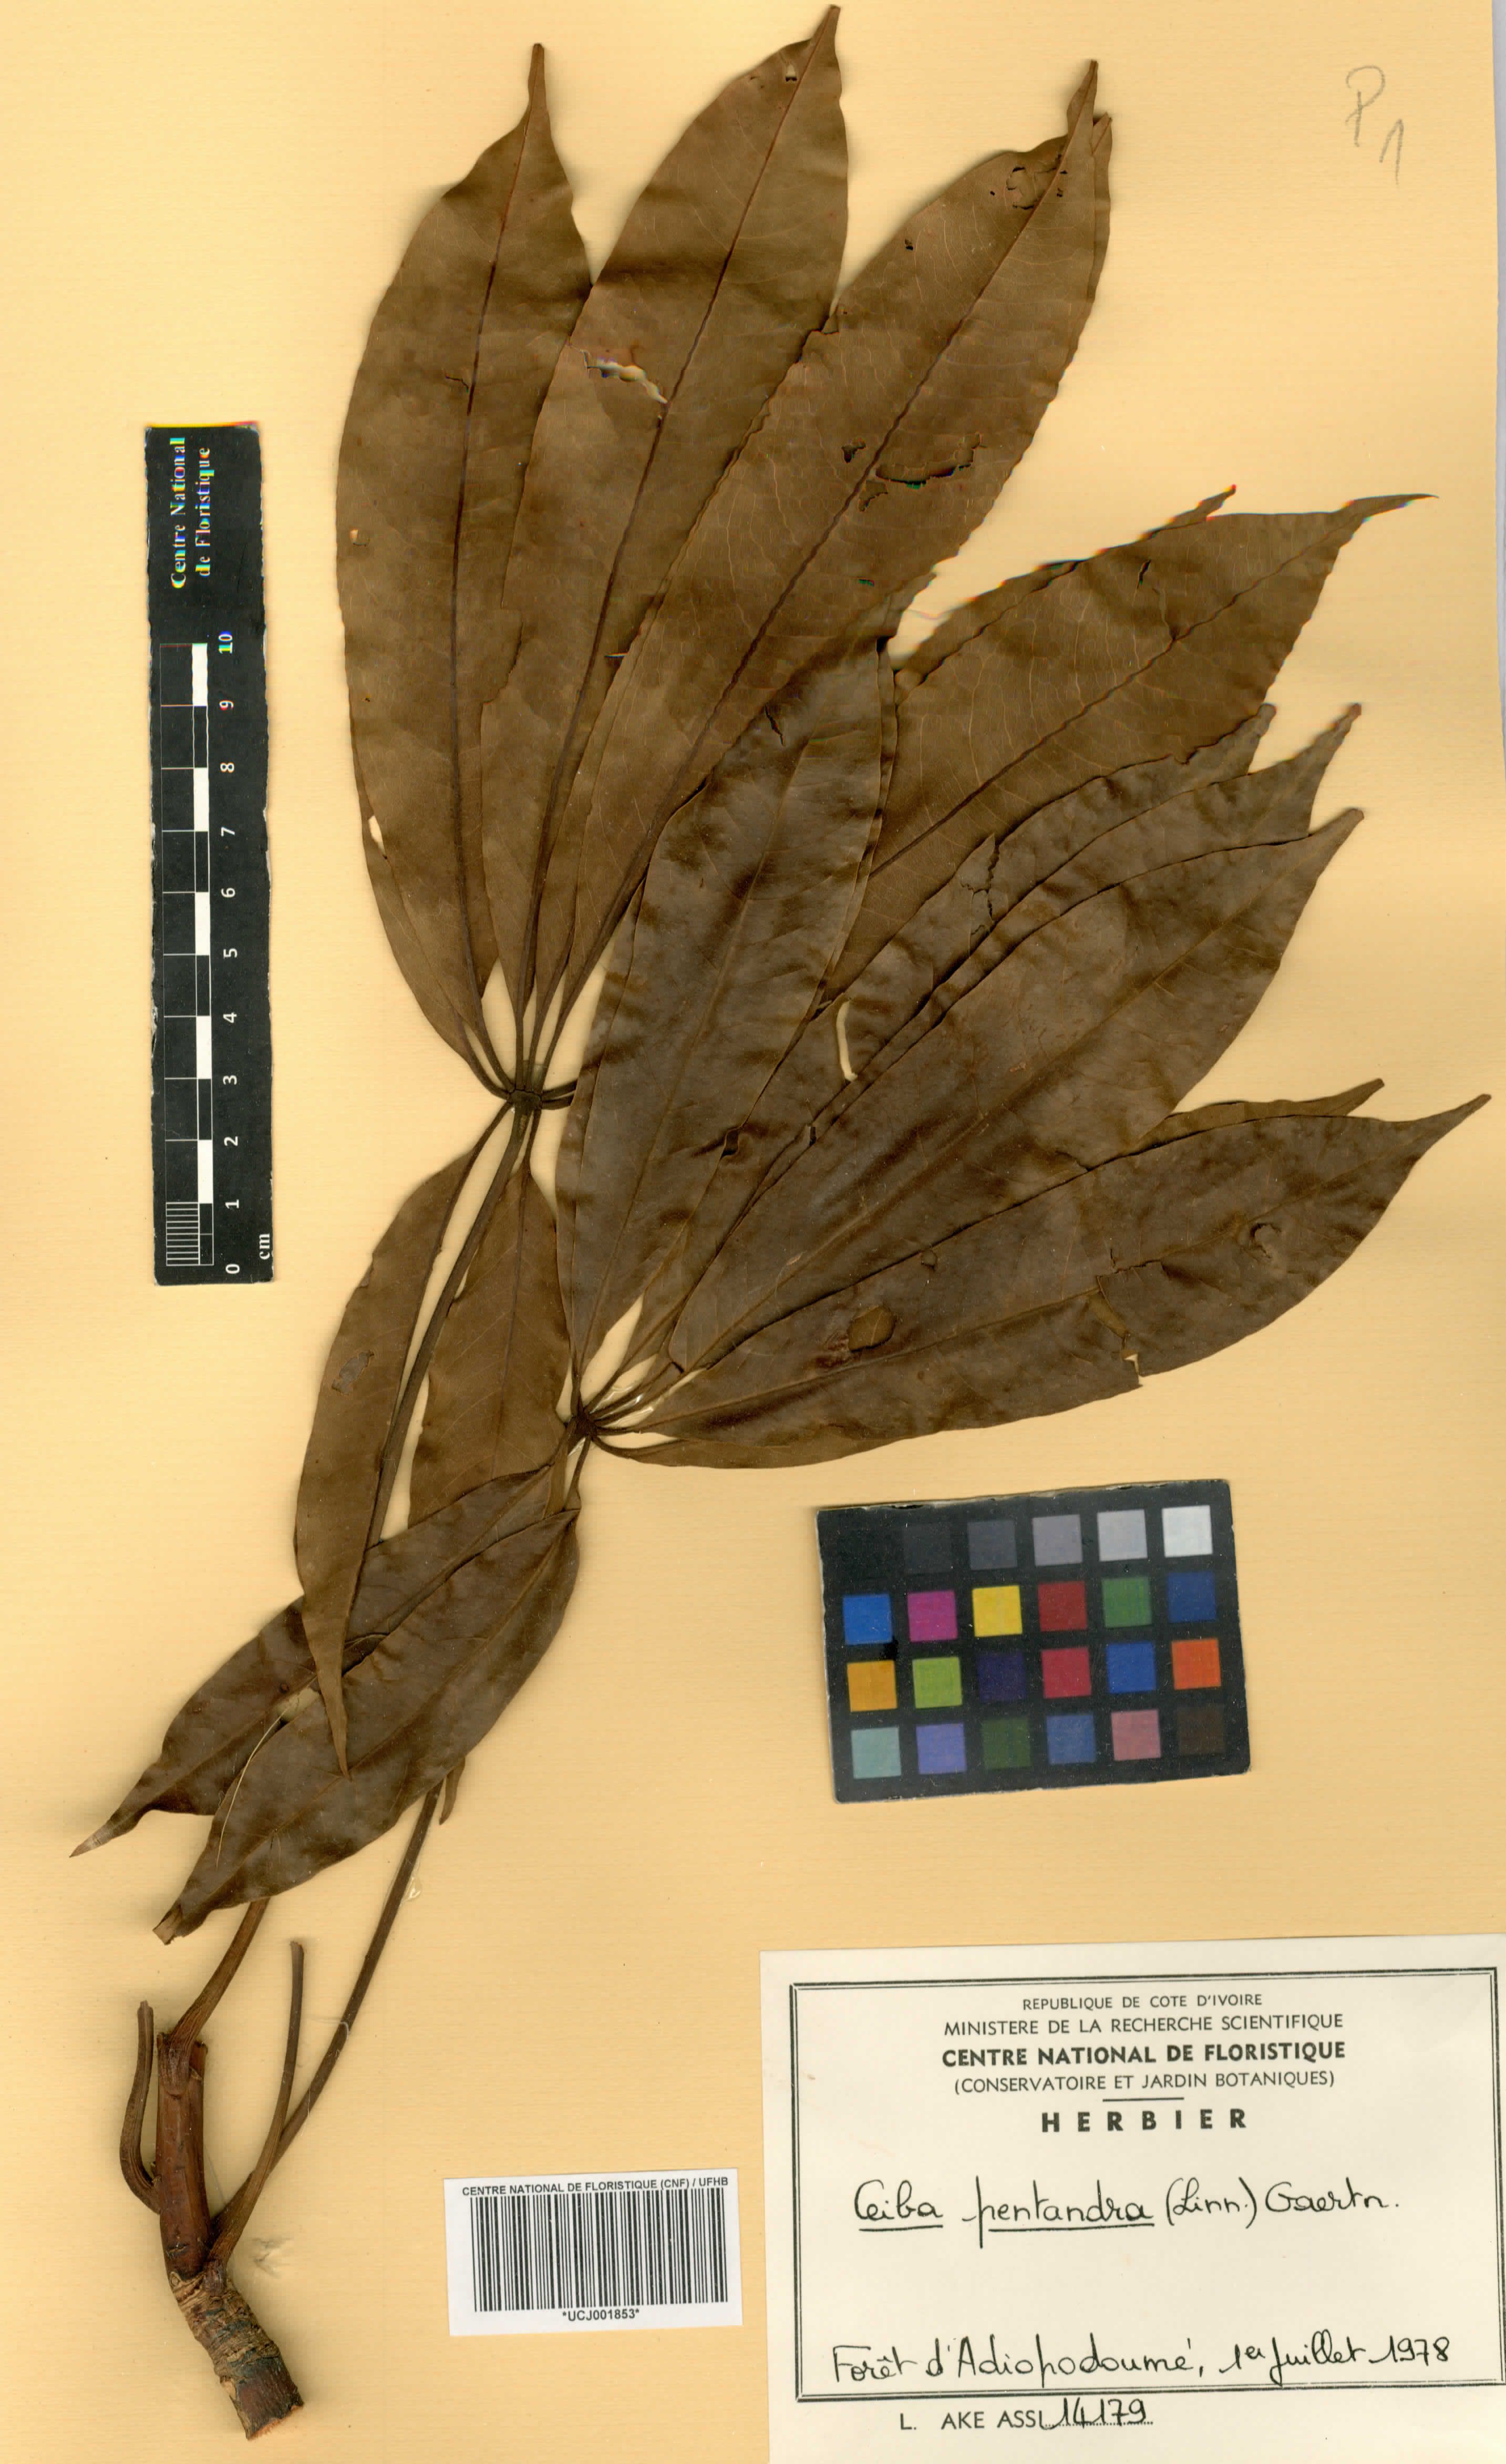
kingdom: Plantae
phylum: Tracheophyta
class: Magnoliopsida
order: Malvales
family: Malvaceae
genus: Ceiba
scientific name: Ceiba pentandra
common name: Kapok
